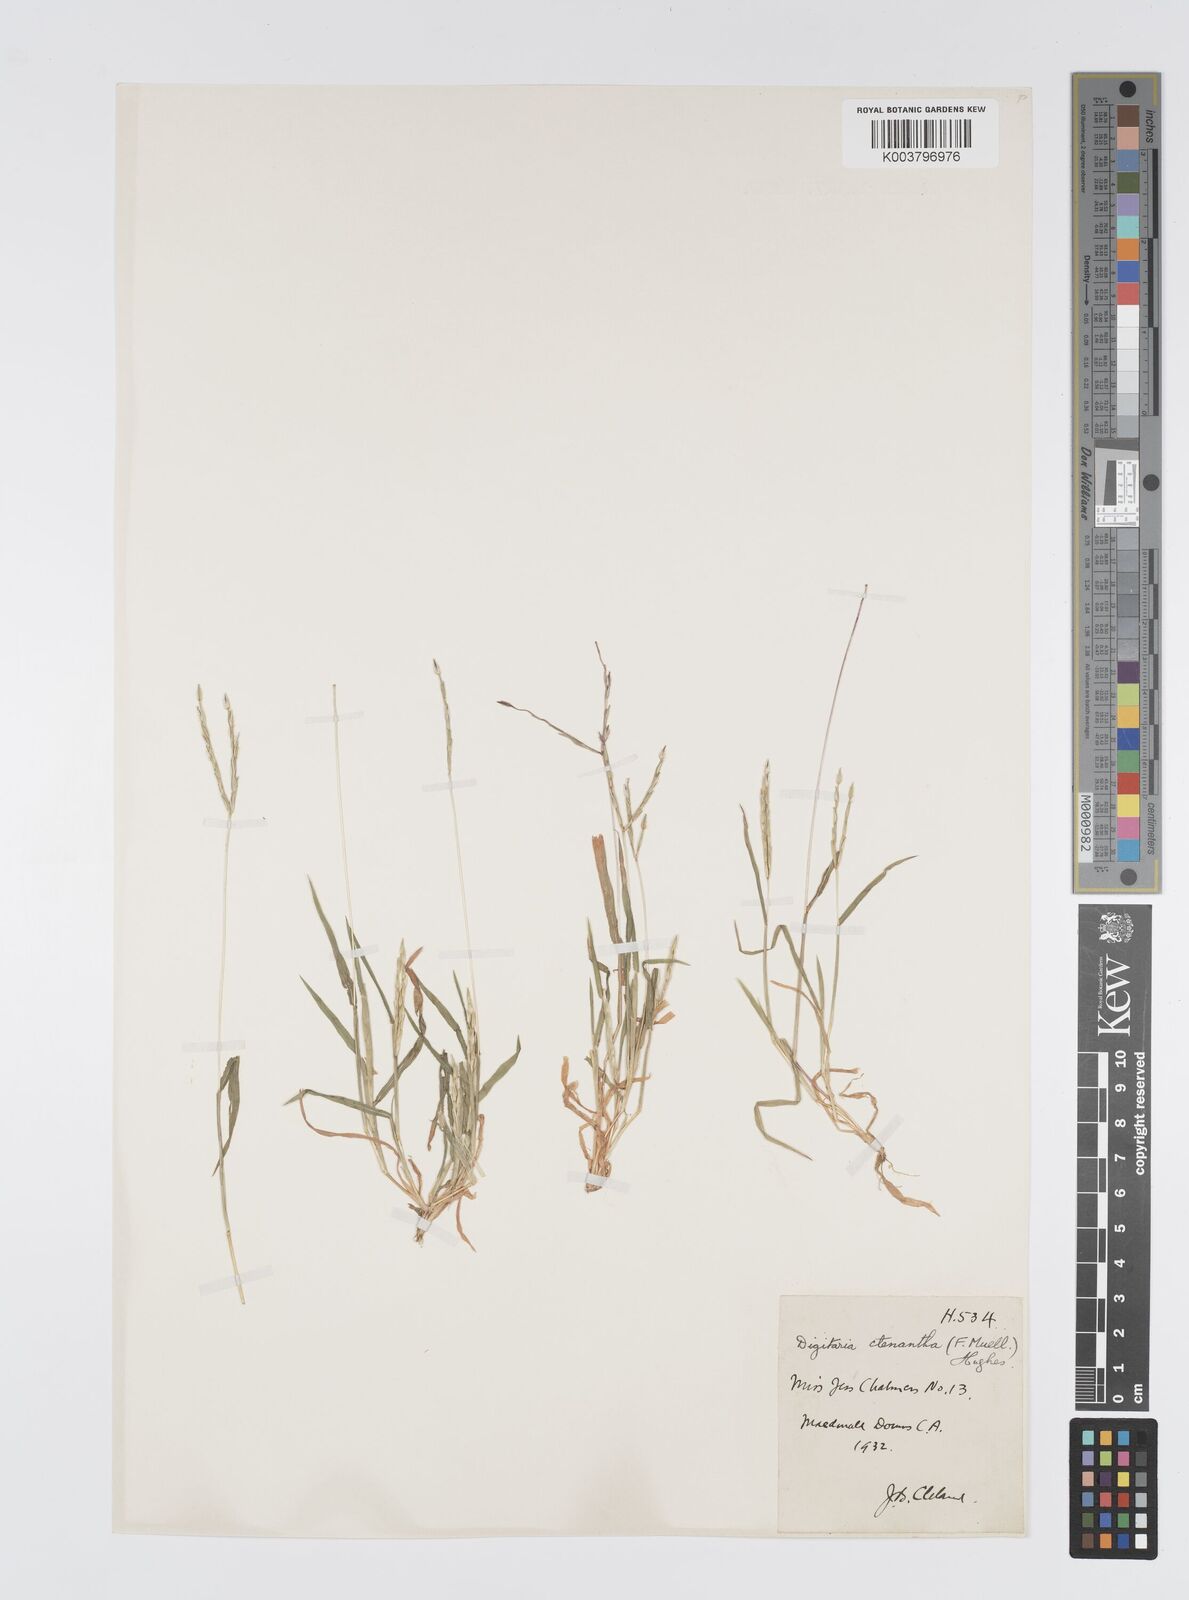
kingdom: Plantae
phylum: Tracheophyta
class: Liliopsida
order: Poales
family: Poaceae
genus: Digitaria
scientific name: Digitaria ctenantha
